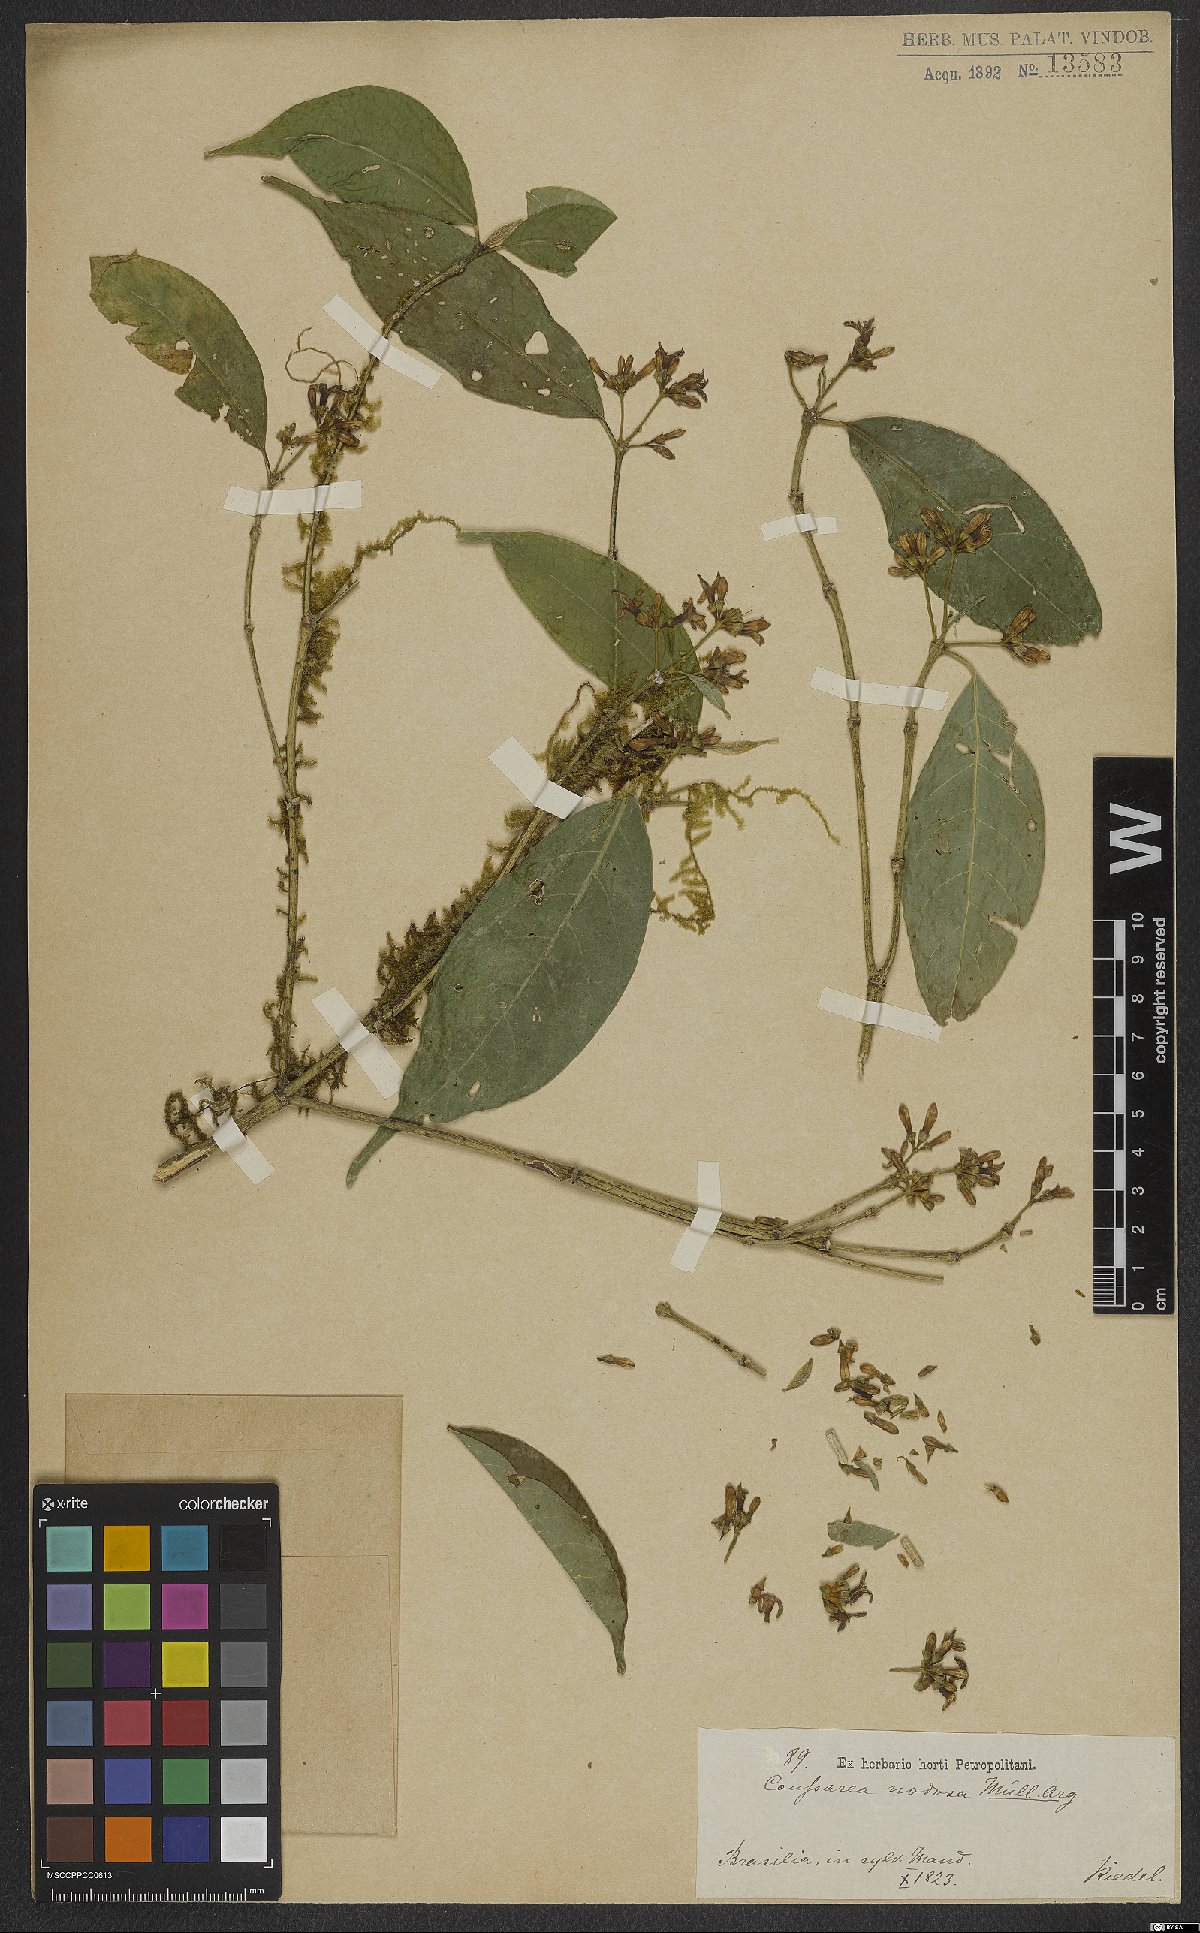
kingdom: Plantae
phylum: Tracheophyta
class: Magnoliopsida
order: Gentianales
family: Rubiaceae
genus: Coussarea
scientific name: Coussarea nodosa
